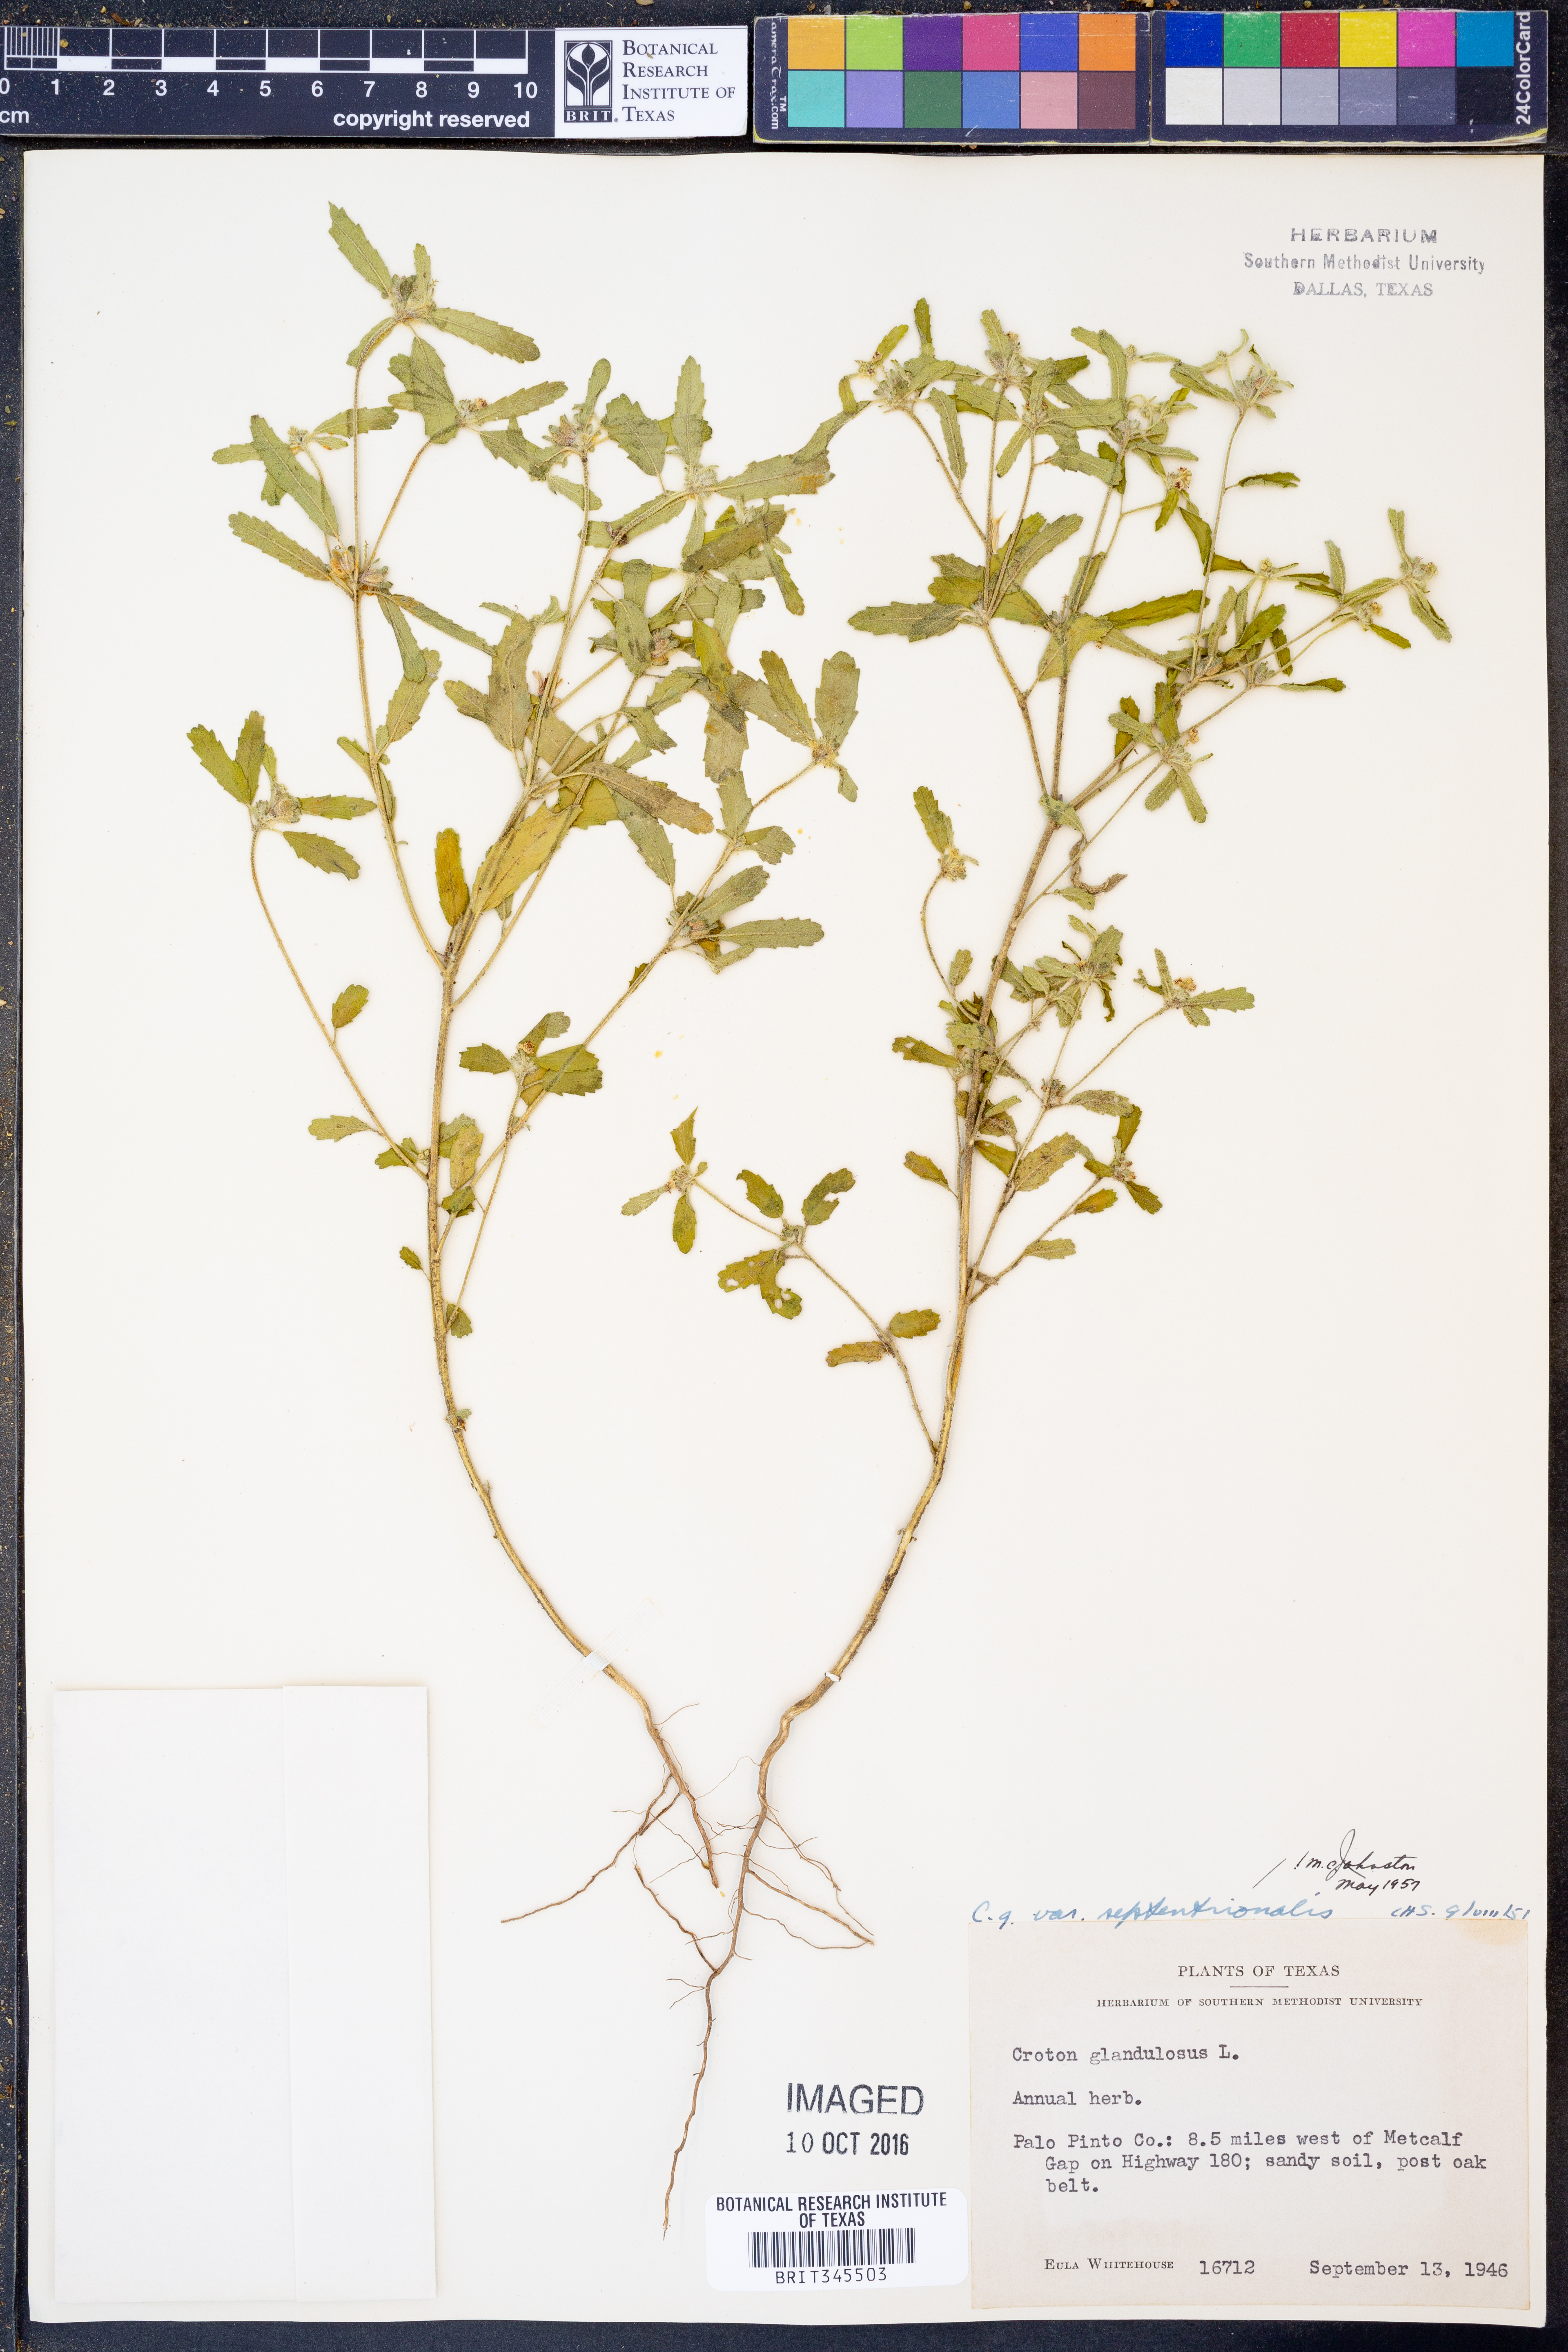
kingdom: Plantae
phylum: Tracheophyta
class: Magnoliopsida
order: Malpighiales
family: Euphorbiaceae
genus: Croton
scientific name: Croton glandulosus
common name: Tropic croton
